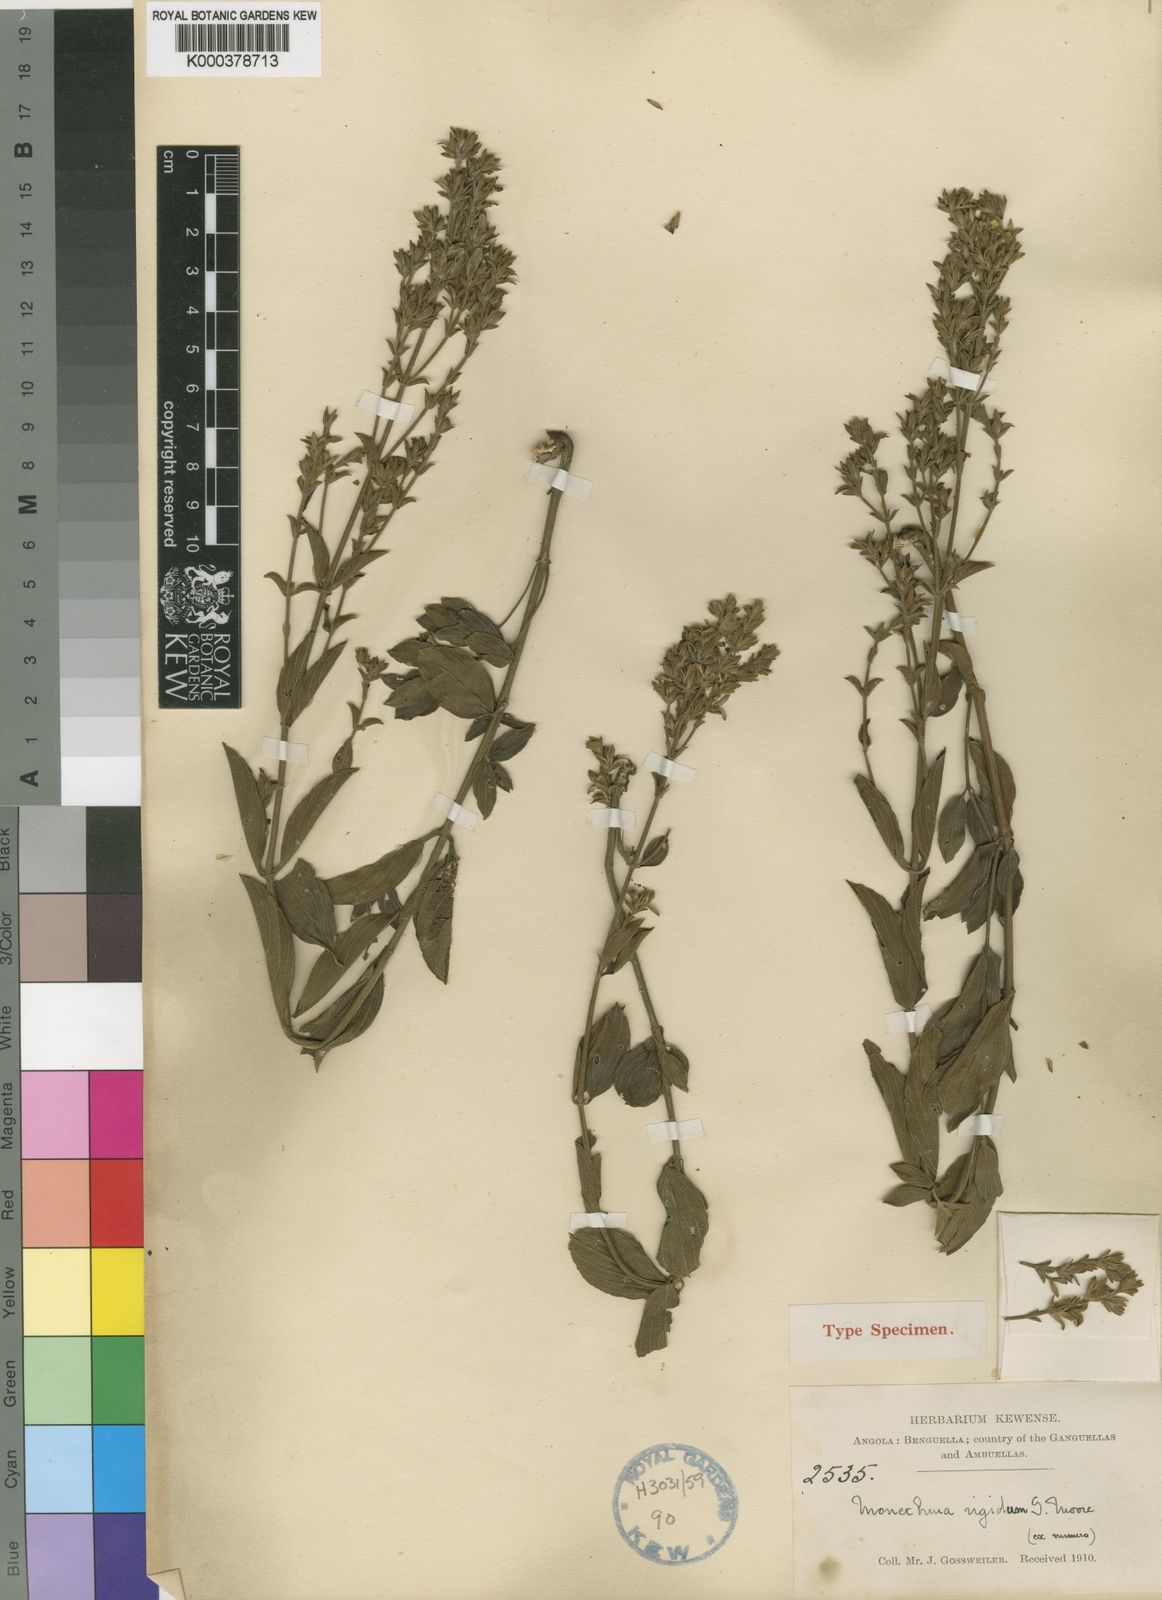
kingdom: Plantae
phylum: Tracheophyta
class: Magnoliopsida
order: Lamiales
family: Acanthaceae
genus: Monechma
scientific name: Monechma rigidum
